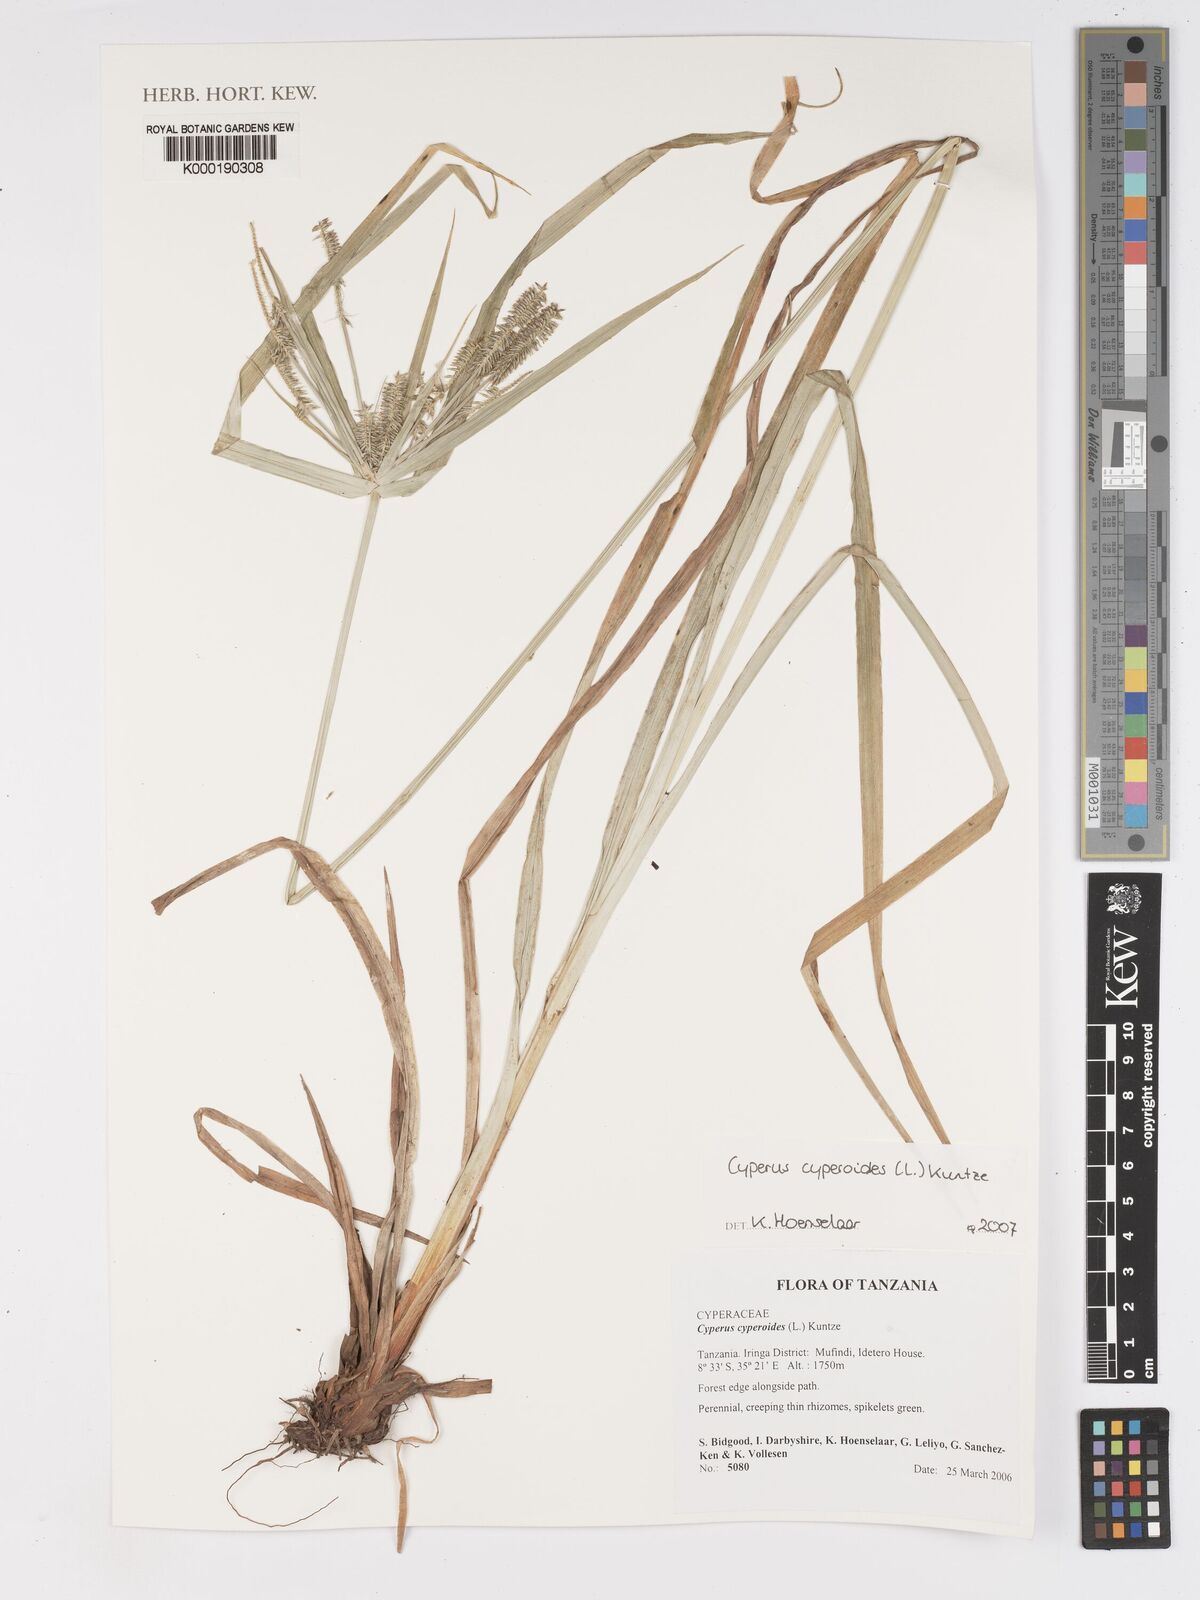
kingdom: Plantae
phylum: Tracheophyta
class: Liliopsida
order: Poales
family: Cyperaceae
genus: Cyperus
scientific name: Cyperus cyperoides
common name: Pacific island flat sedge
